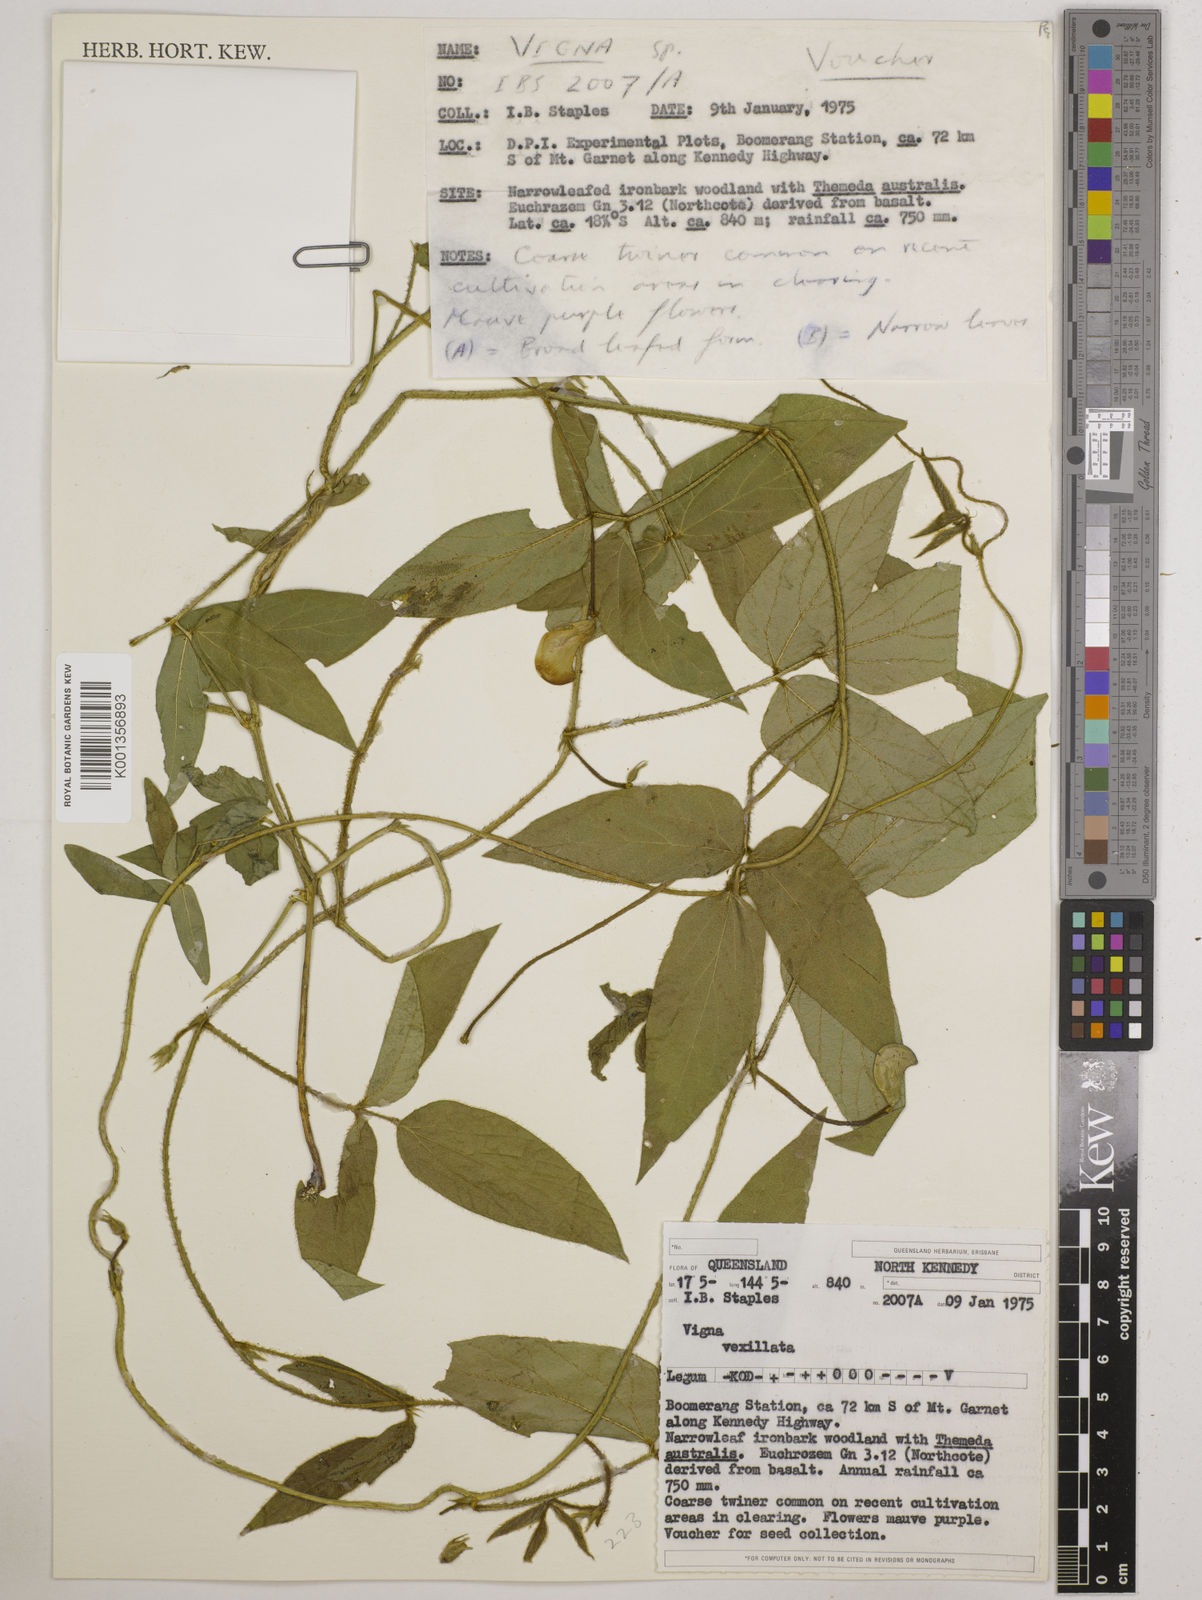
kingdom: Plantae
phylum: Tracheophyta
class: Magnoliopsida
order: Fabales
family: Fabaceae
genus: Vigna
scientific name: Vigna vexillata
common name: Zombi pea
